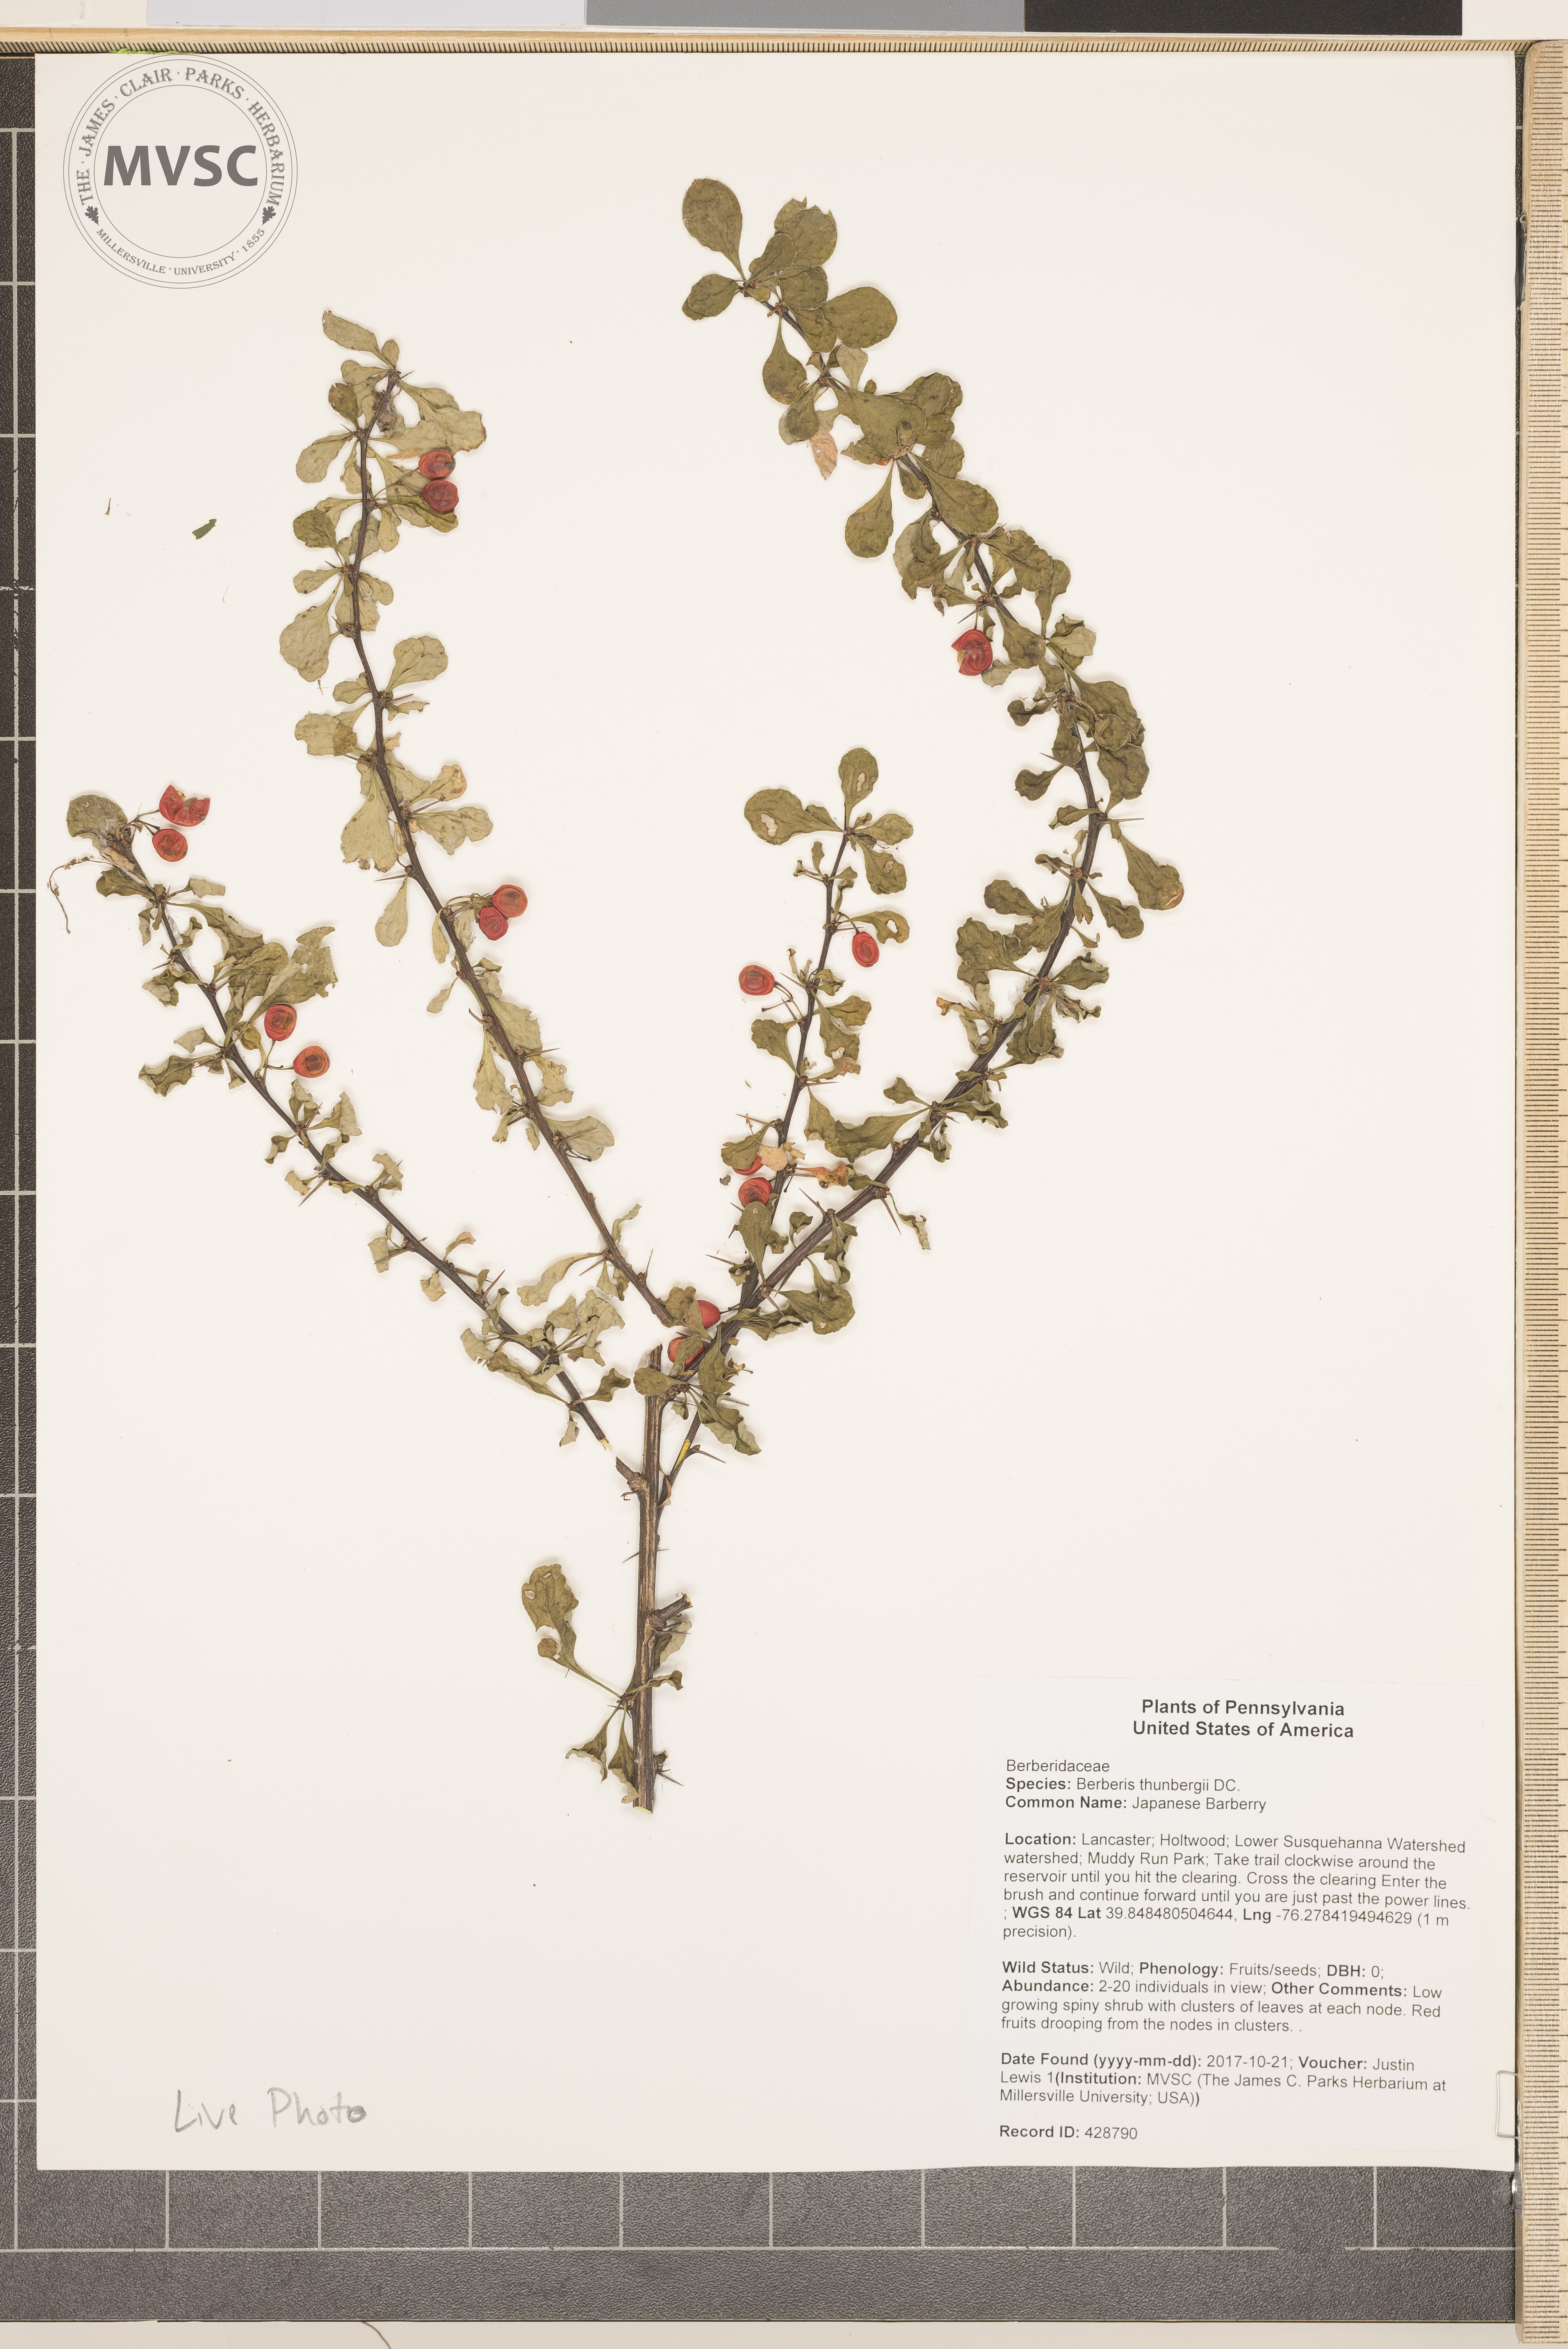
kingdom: Plantae
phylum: Tracheophyta
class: Magnoliopsida
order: Ranunculales
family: Berberidaceae
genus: Berberis
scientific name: Berberis thunbergii
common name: Japanese Barberry
